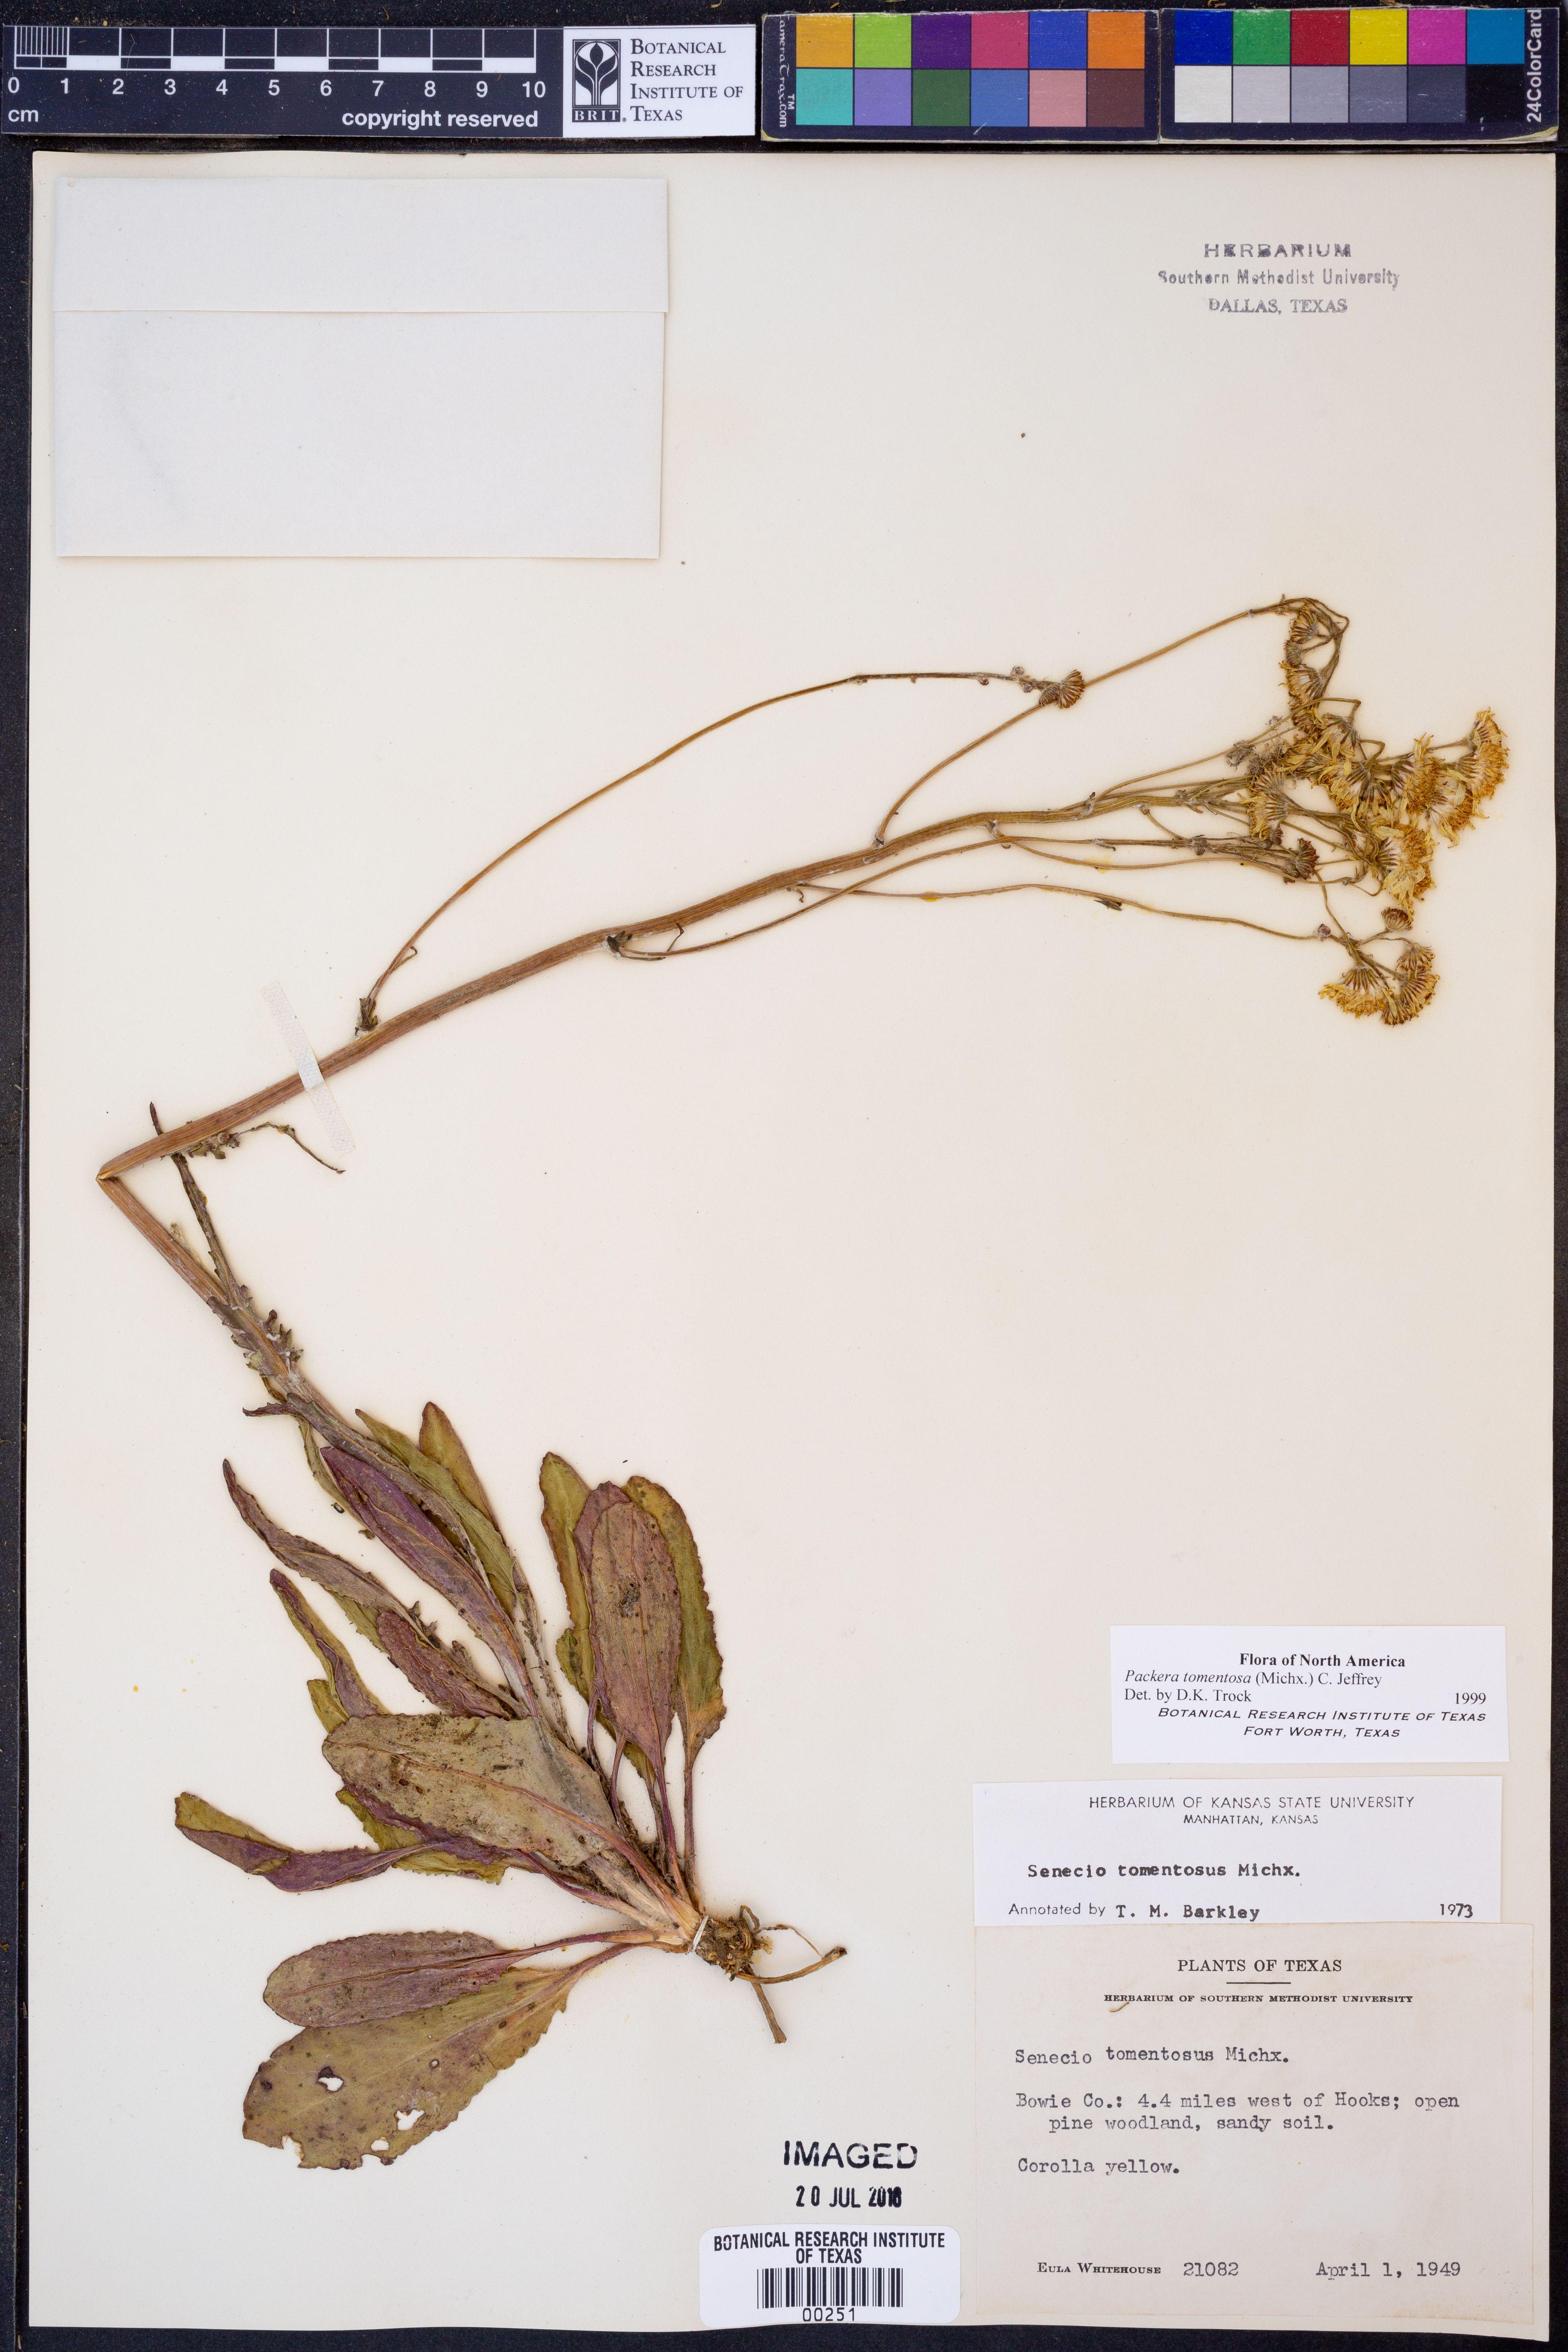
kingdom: Plantae
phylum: Tracheophyta
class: Magnoliopsida
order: Asterales
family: Asteraceae
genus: Packera
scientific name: Packera dubia
